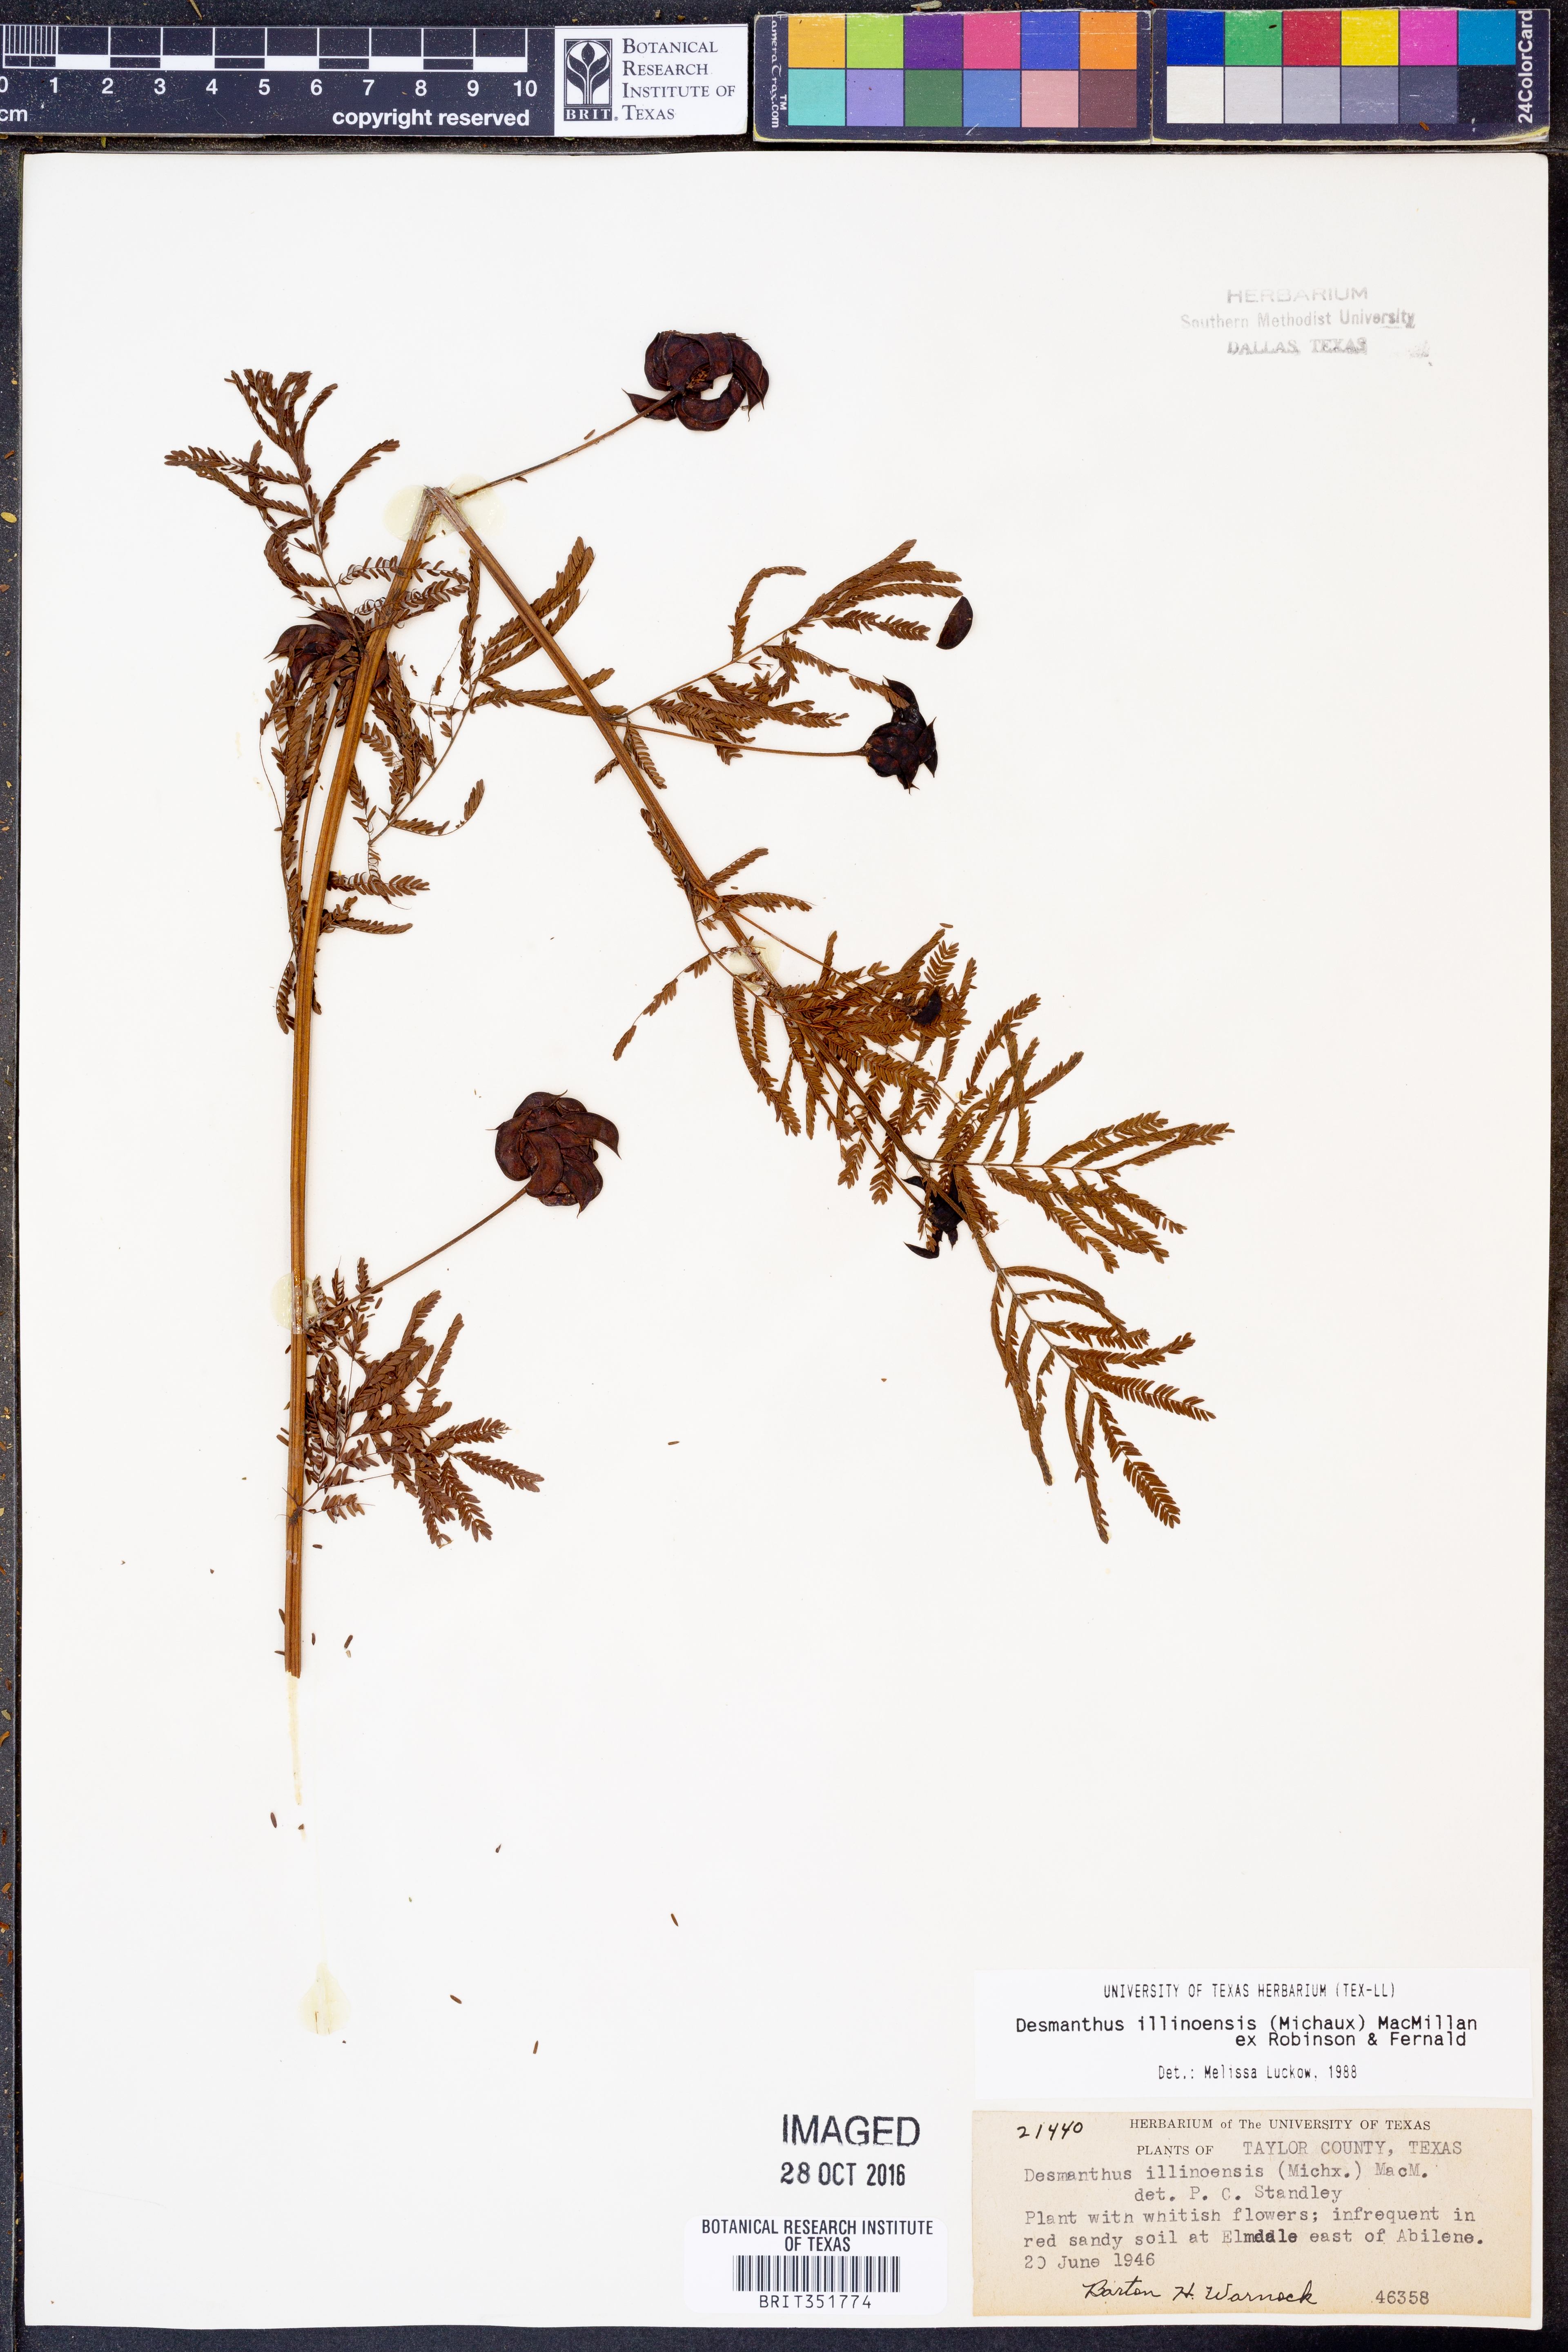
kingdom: Plantae
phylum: Tracheophyta
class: Magnoliopsida
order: Fabales
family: Fabaceae
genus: Desmanthus
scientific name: Desmanthus illinoensis
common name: Illinois bundle-flower
